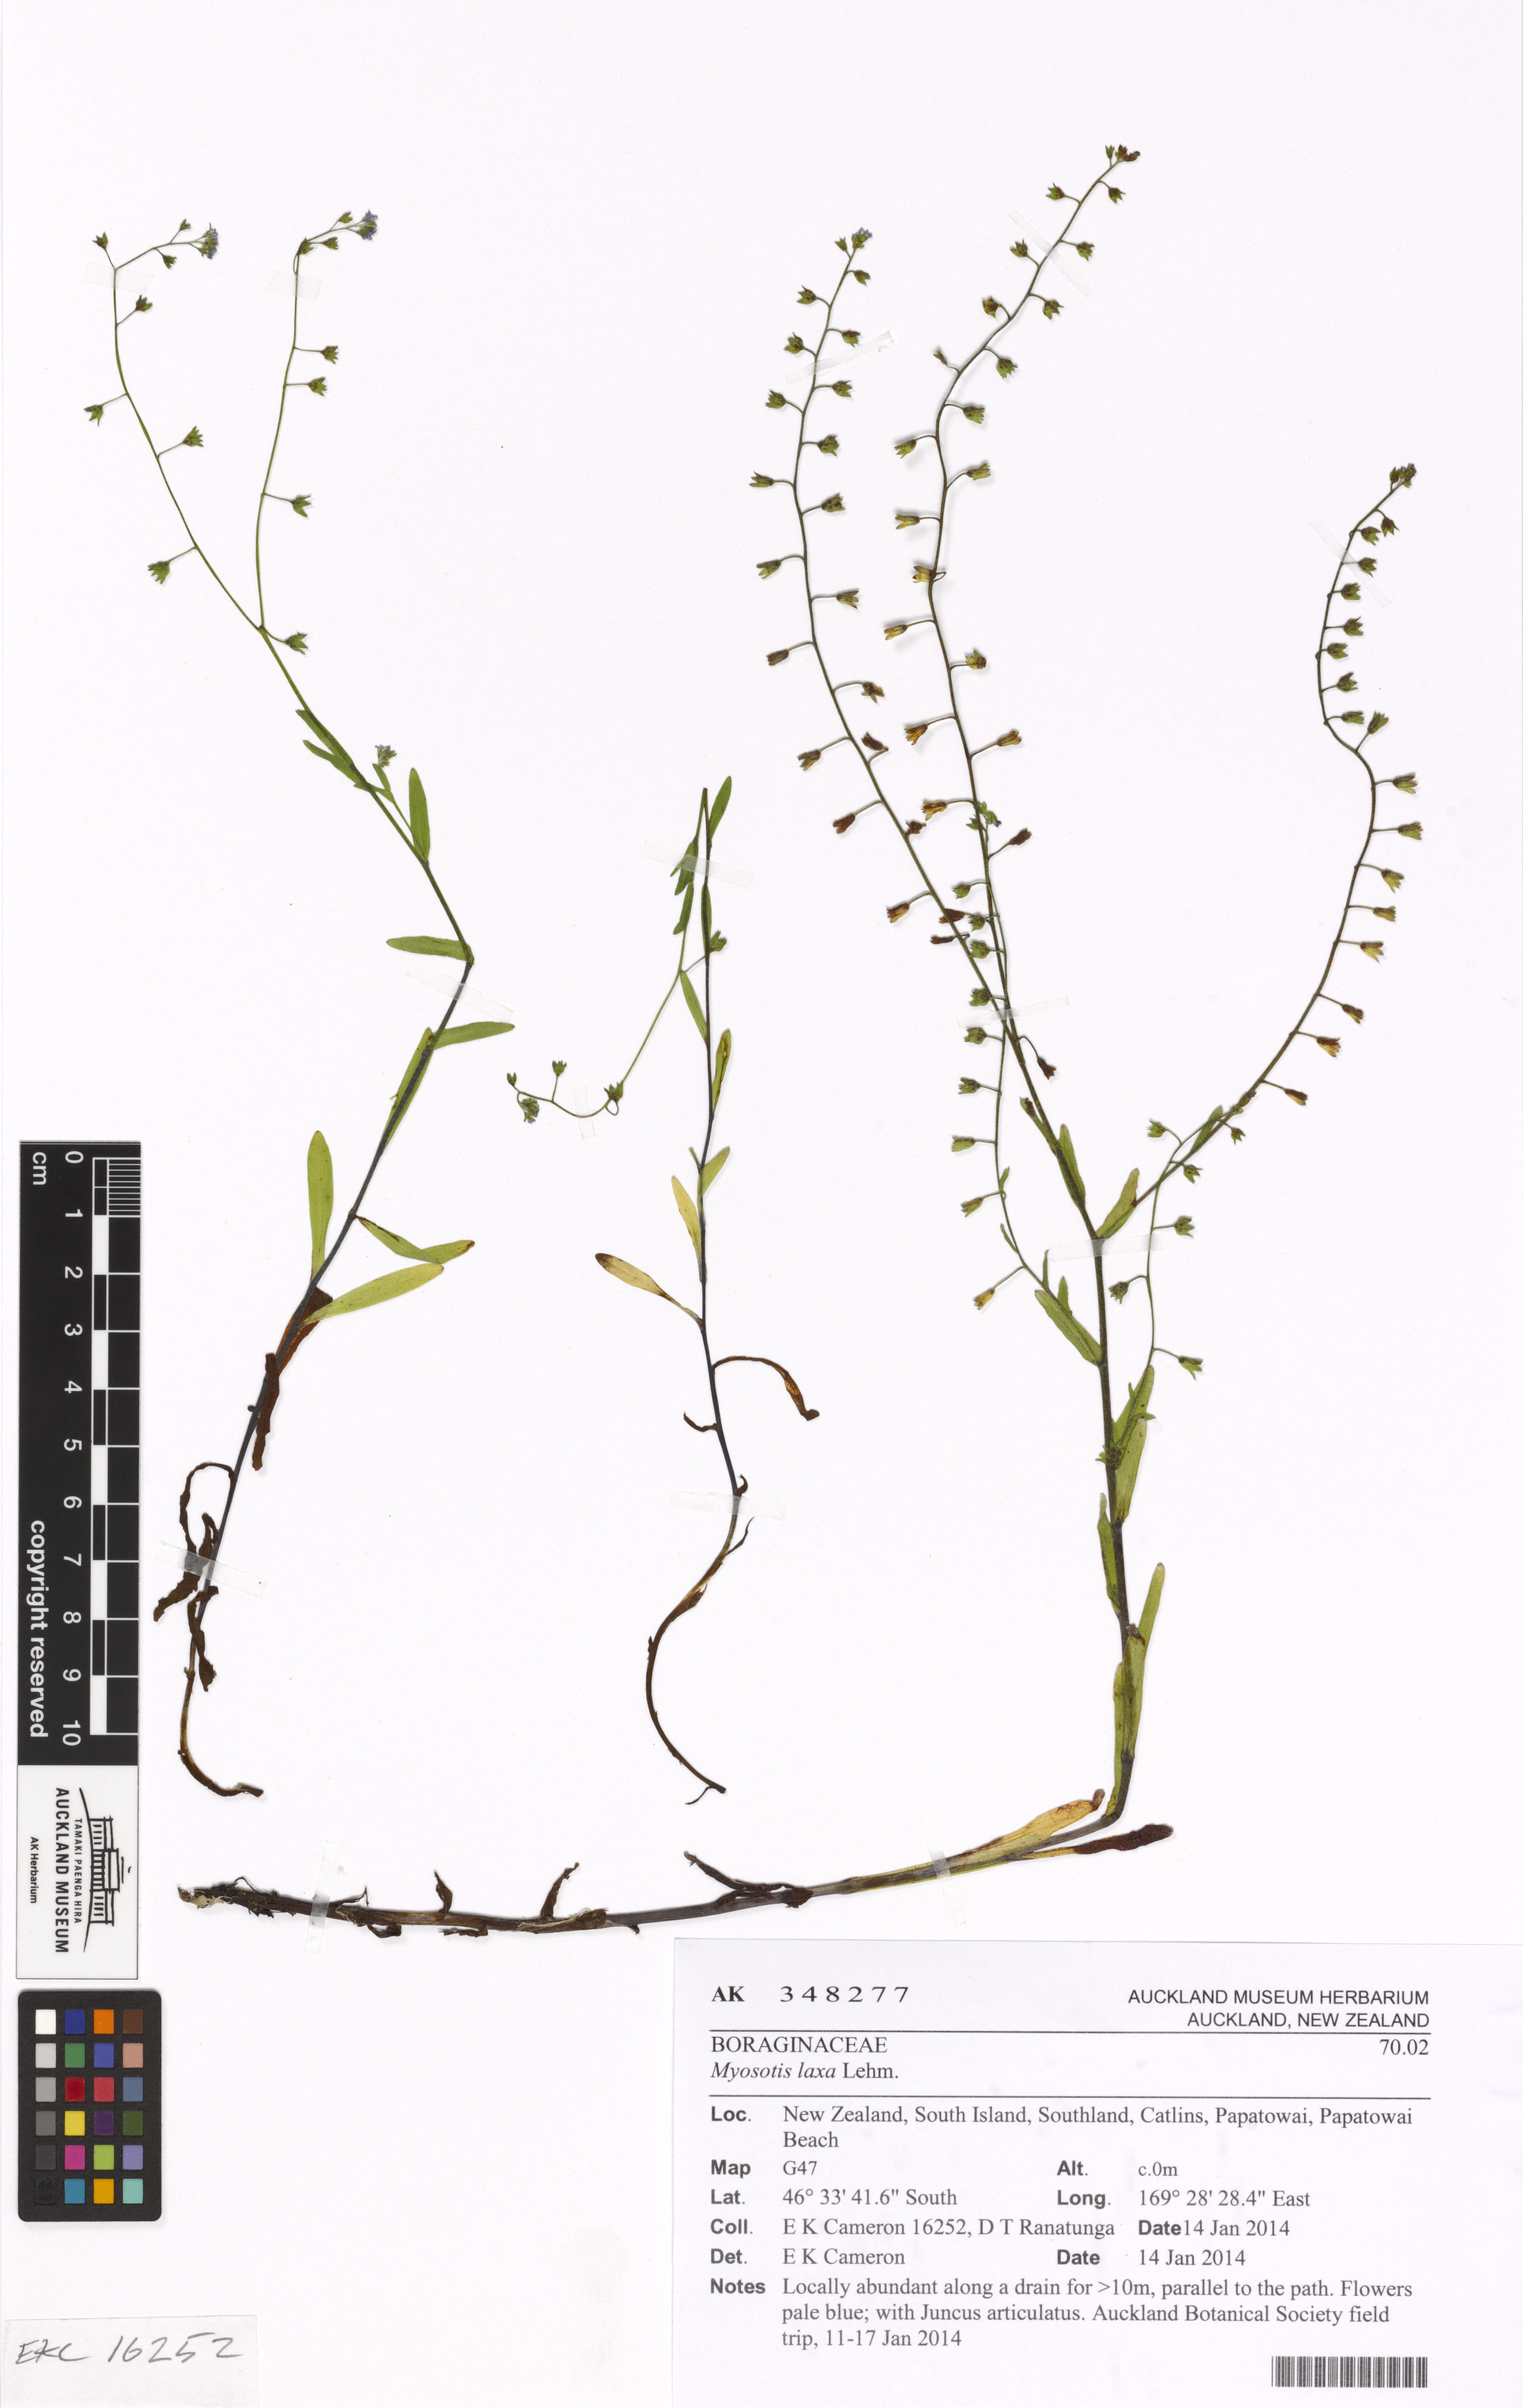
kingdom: Plantae
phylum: Tracheophyta
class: Magnoliopsida
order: Boraginales
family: Boraginaceae
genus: Myosotis
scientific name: Myosotis laxa
